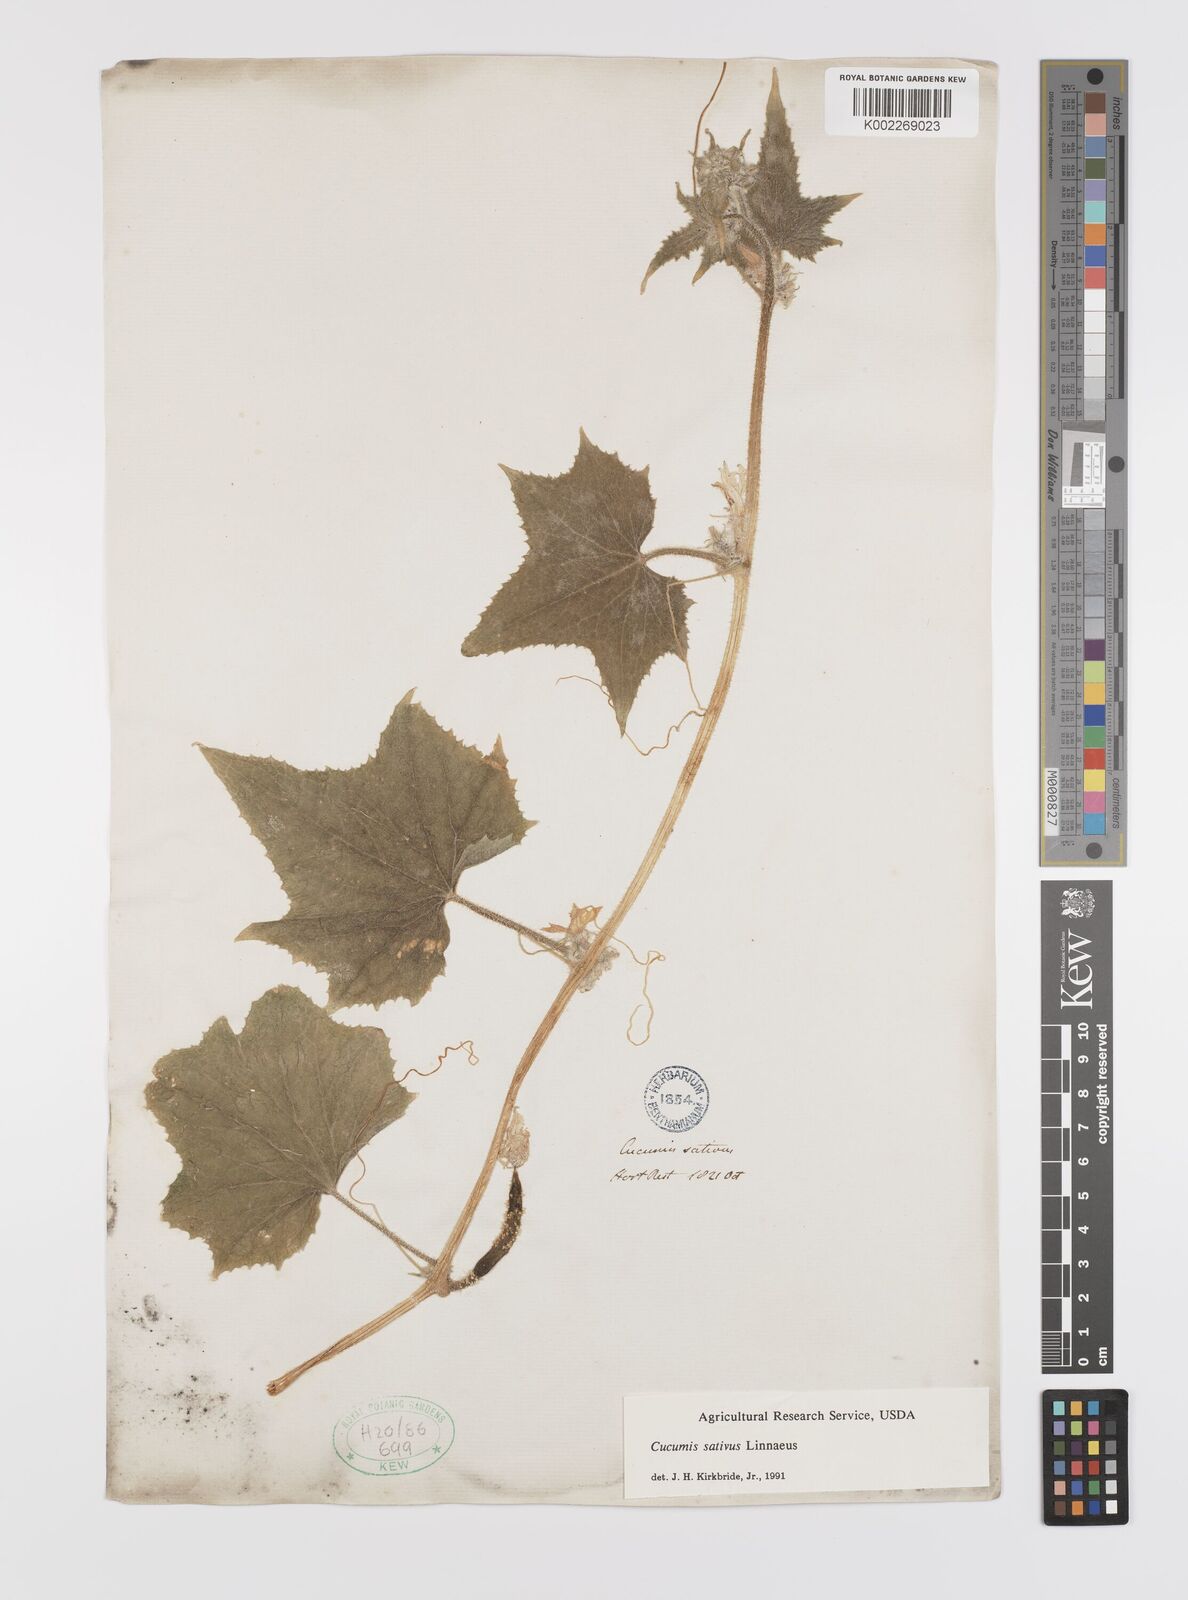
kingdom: Plantae
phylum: Tracheophyta
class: Magnoliopsida
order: Cucurbitales
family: Cucurbitaceae
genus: Cucumis
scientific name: Cucumis sativus
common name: Cucumber
